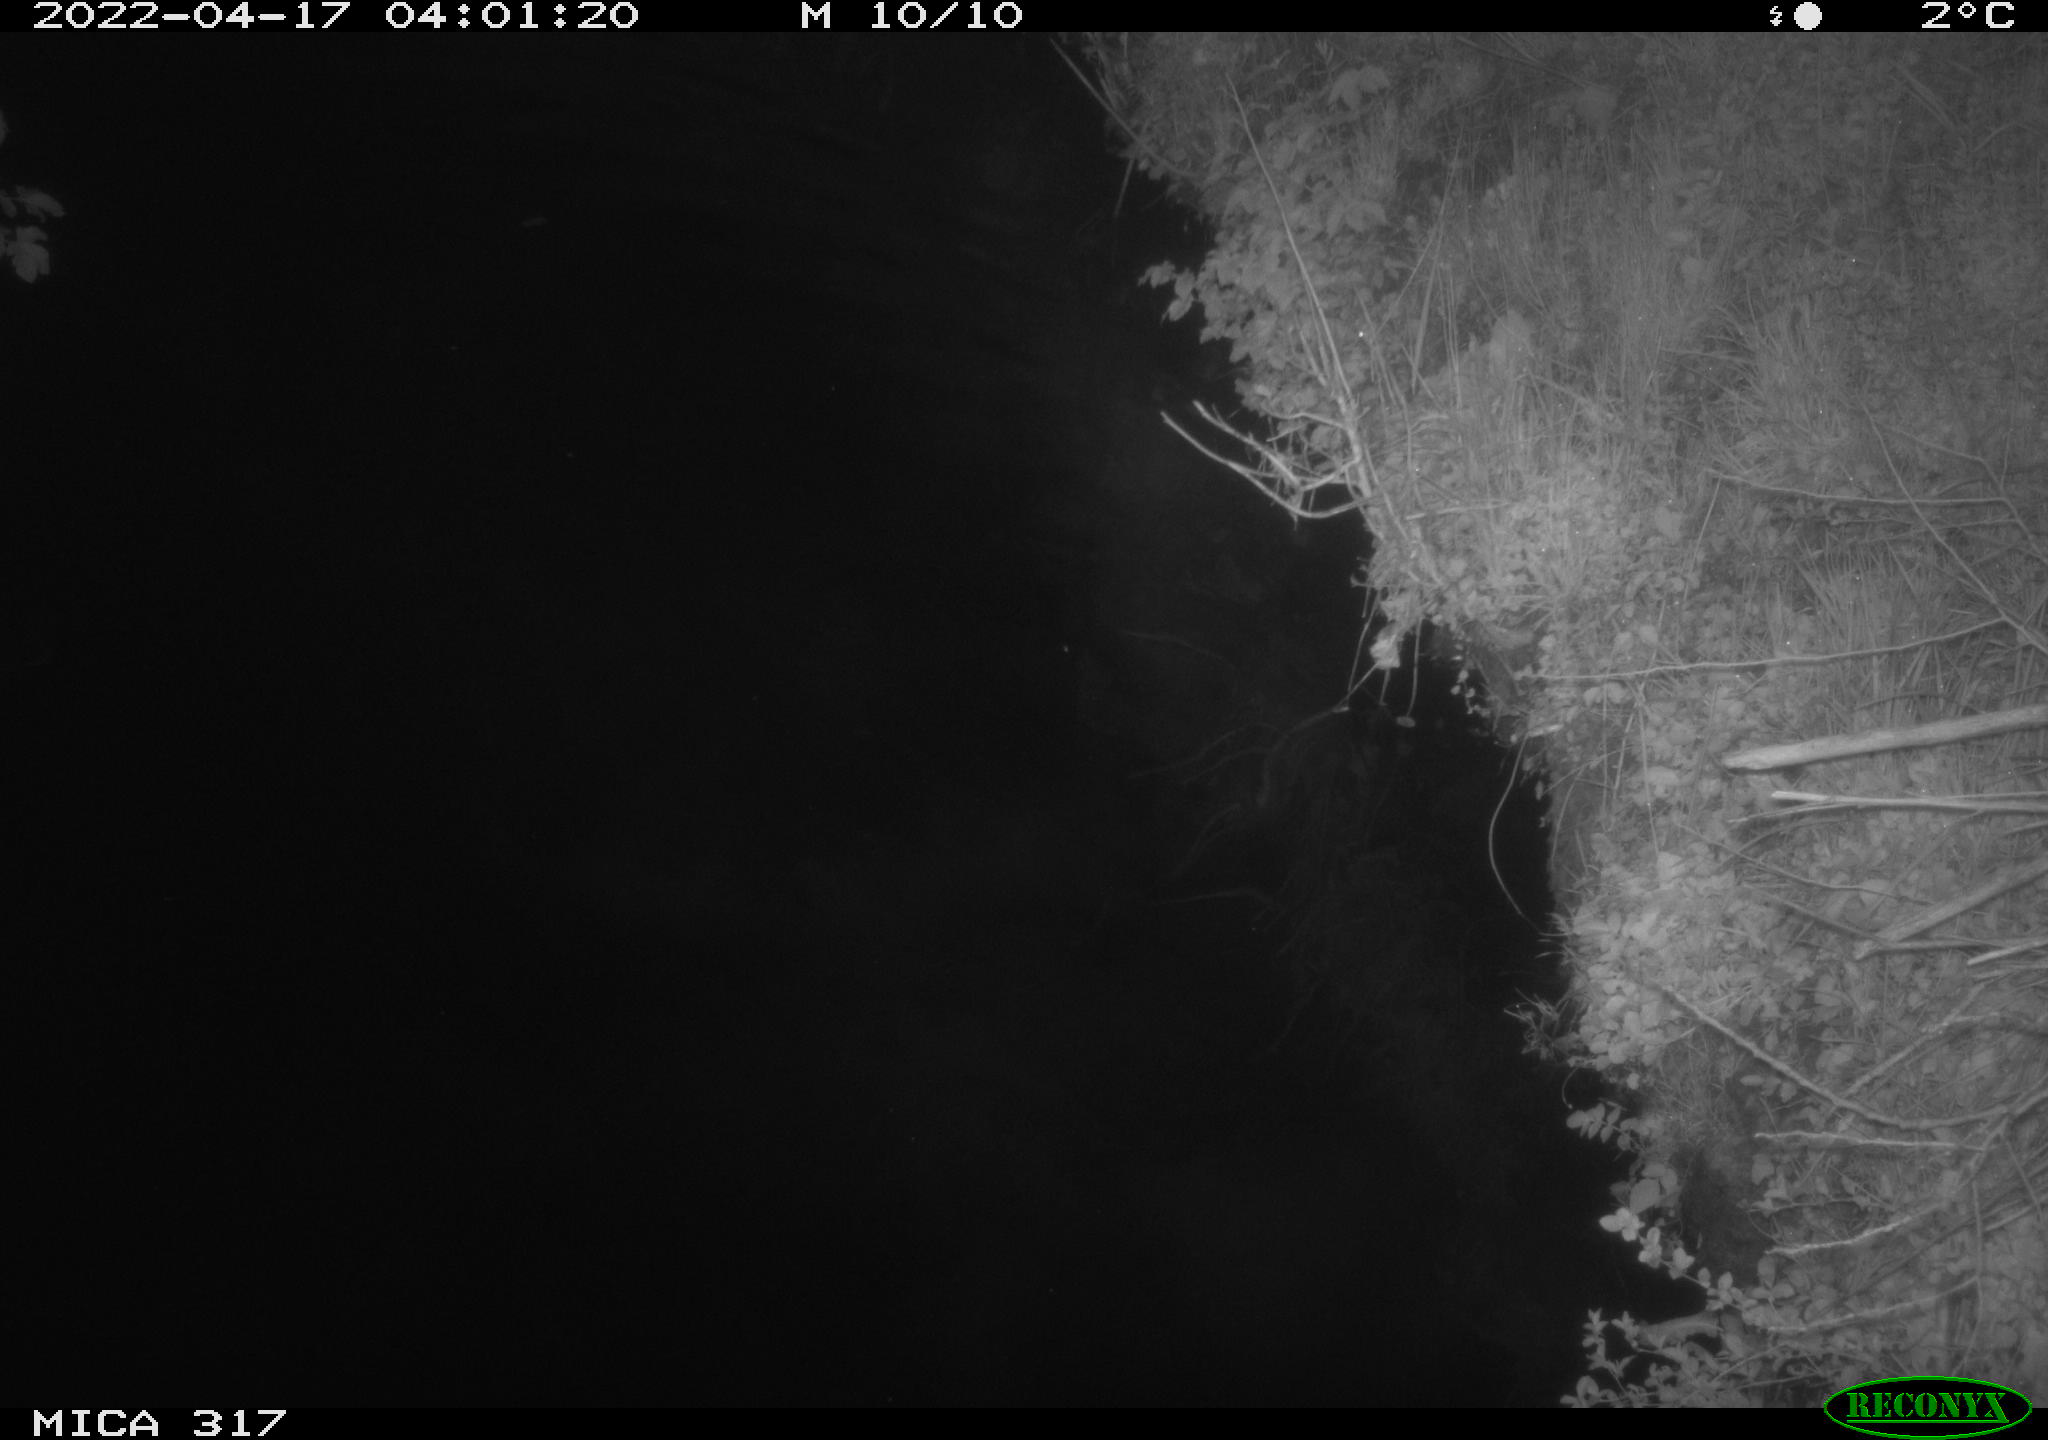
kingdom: Animalia
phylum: Chordata
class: Aves
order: Anseriformes
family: Anatidae
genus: Anas
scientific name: Anas platyrhynchos
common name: Mallard
